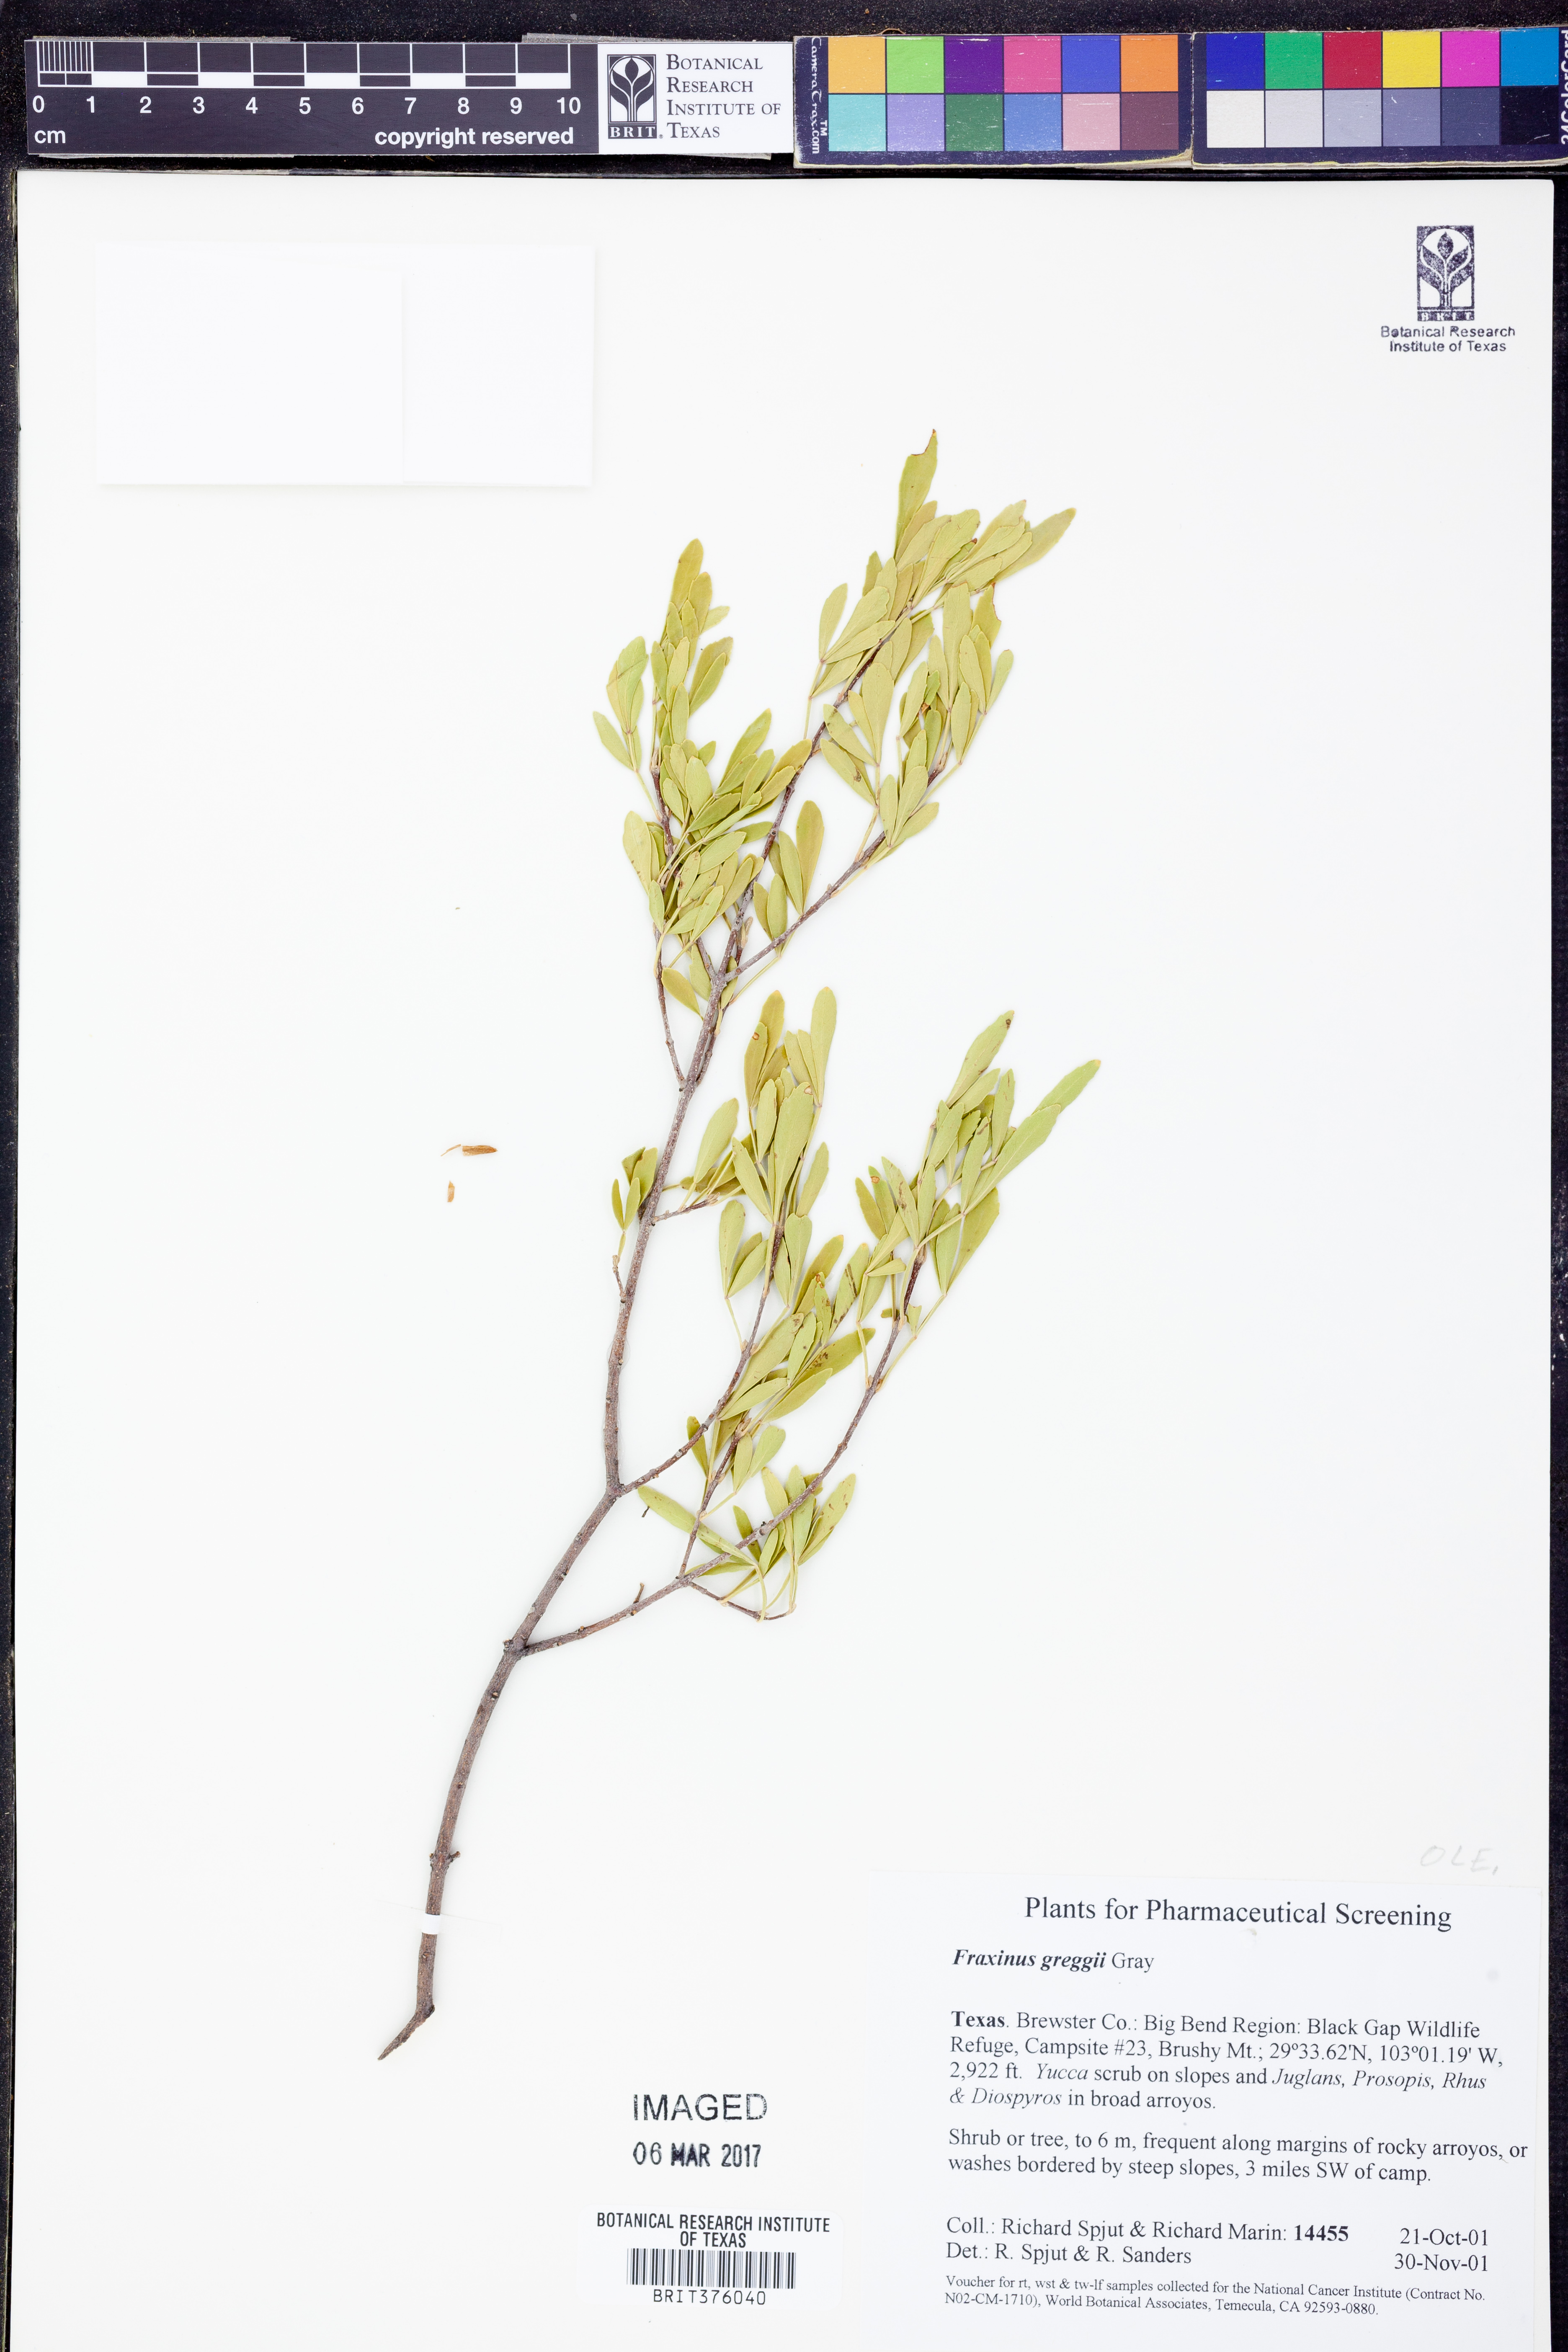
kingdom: Plantae
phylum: Tracheophyta
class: Magnoliopsida
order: Lamiales
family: Oleaceae
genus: Fraxinus
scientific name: Fraxinus greggii
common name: Gregg ash
